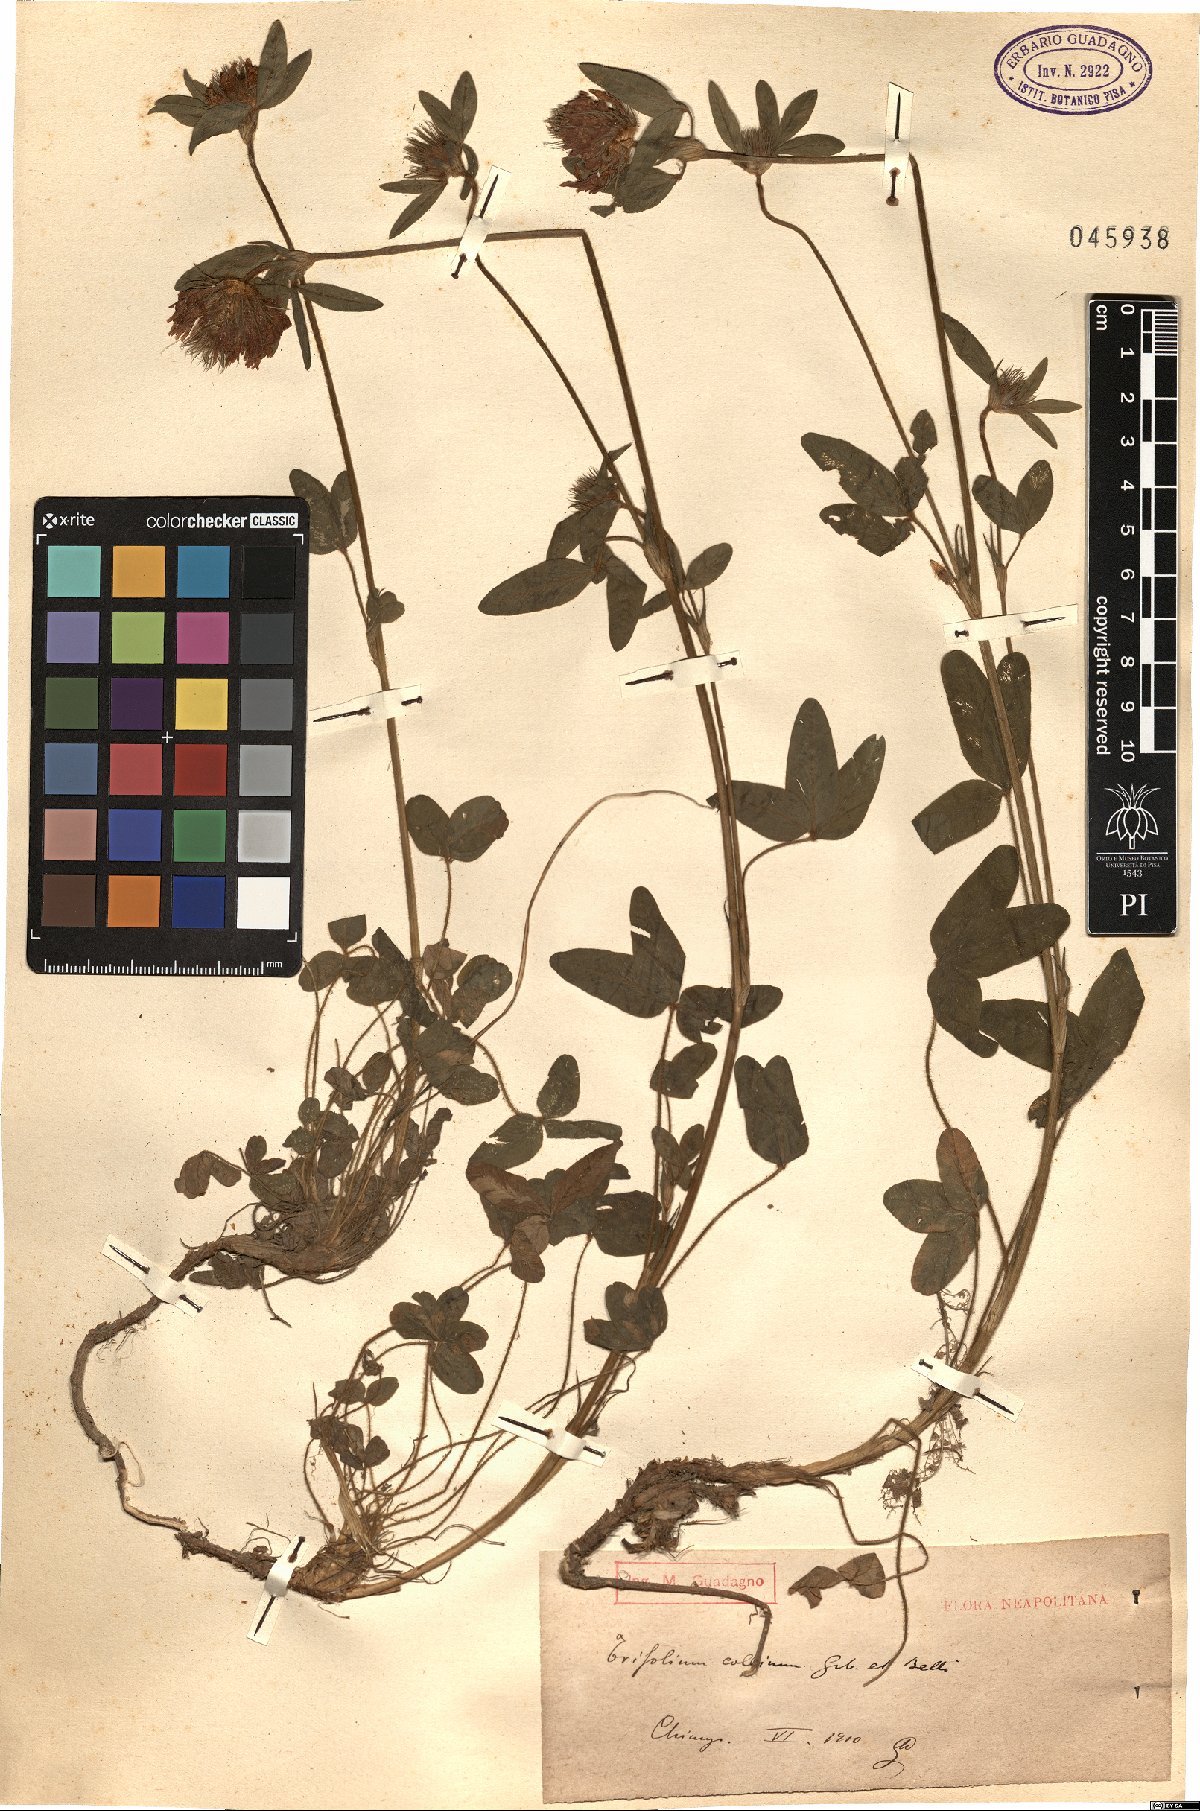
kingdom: Plantae
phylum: Tracheophyta
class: Magnoliopsida
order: Fabales
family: Fabaceae
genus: Trifolium
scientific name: Trifolium bocconei
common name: Twin-headed clover
